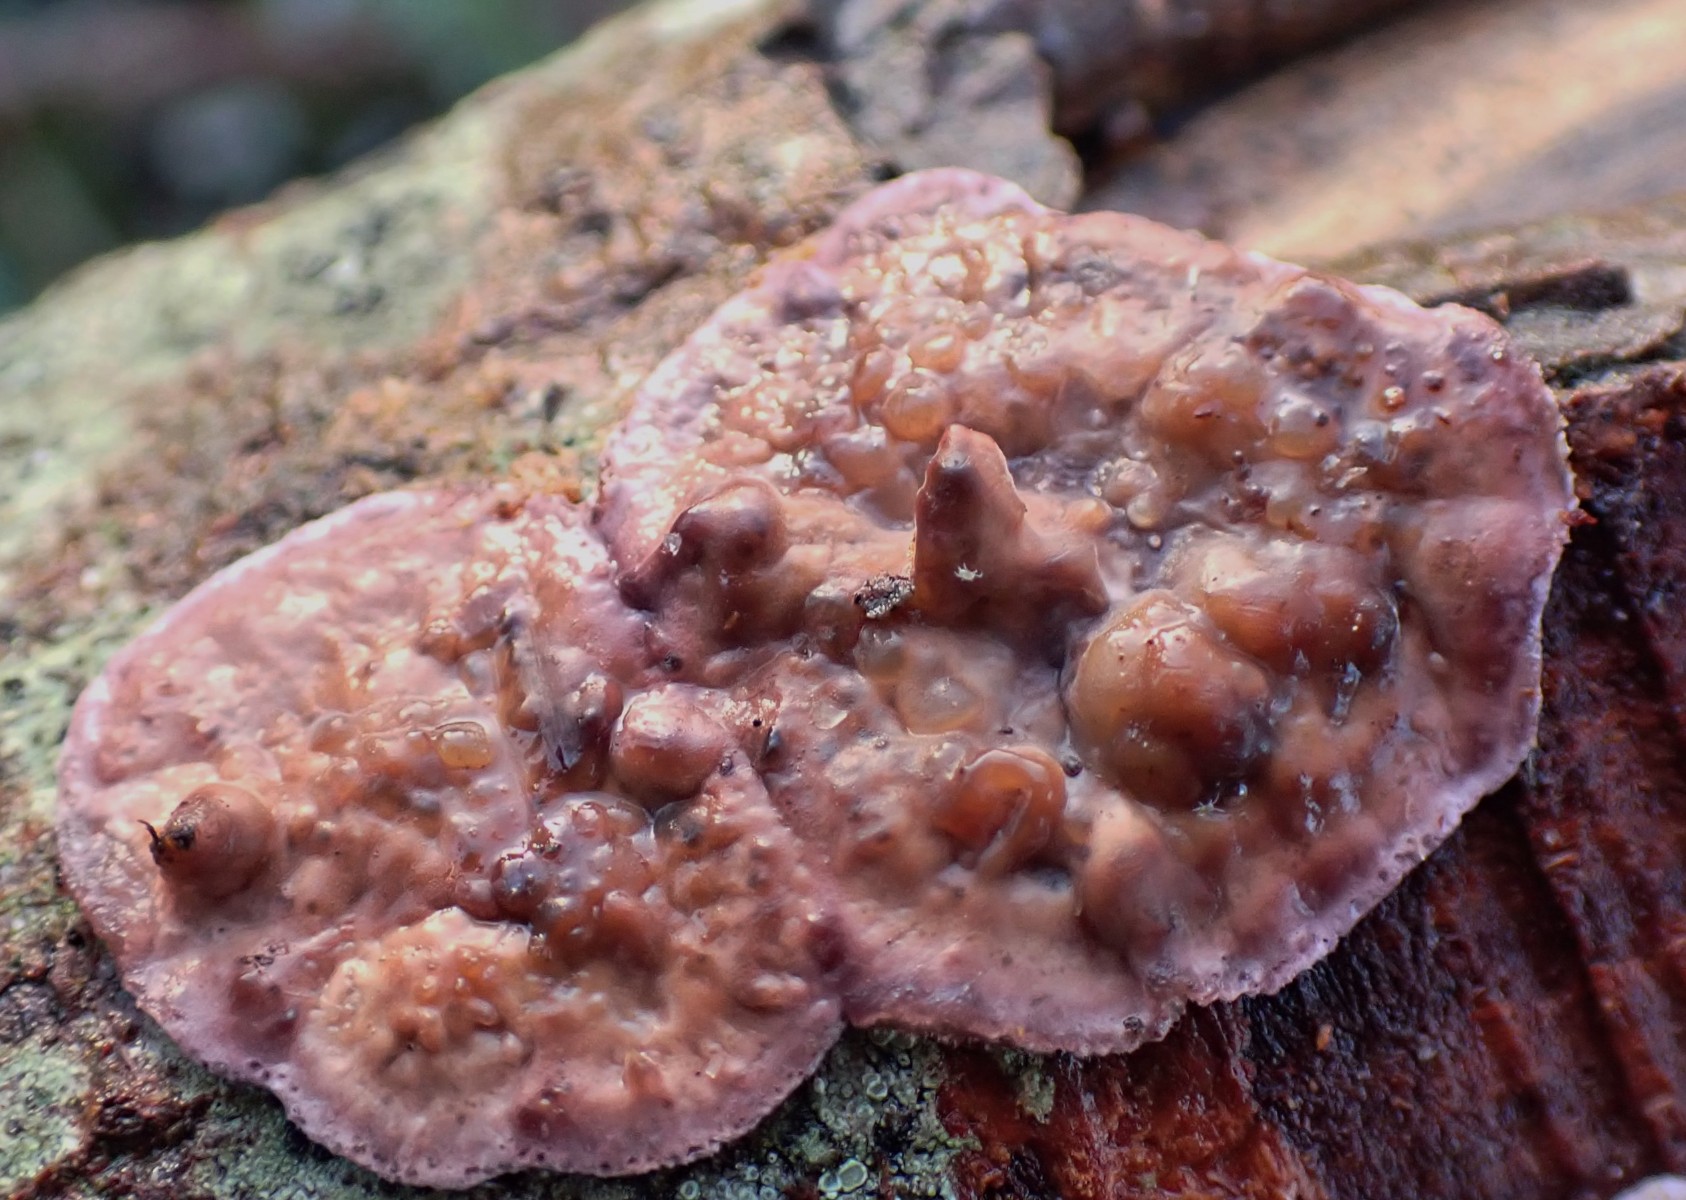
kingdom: Fungi
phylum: Basidiomycota
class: Agaricomycetes
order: Agaricales
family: Cyphellaceae
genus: Chondrostereum
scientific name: Chondrostereum purpureum
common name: purpurlædersvamp
